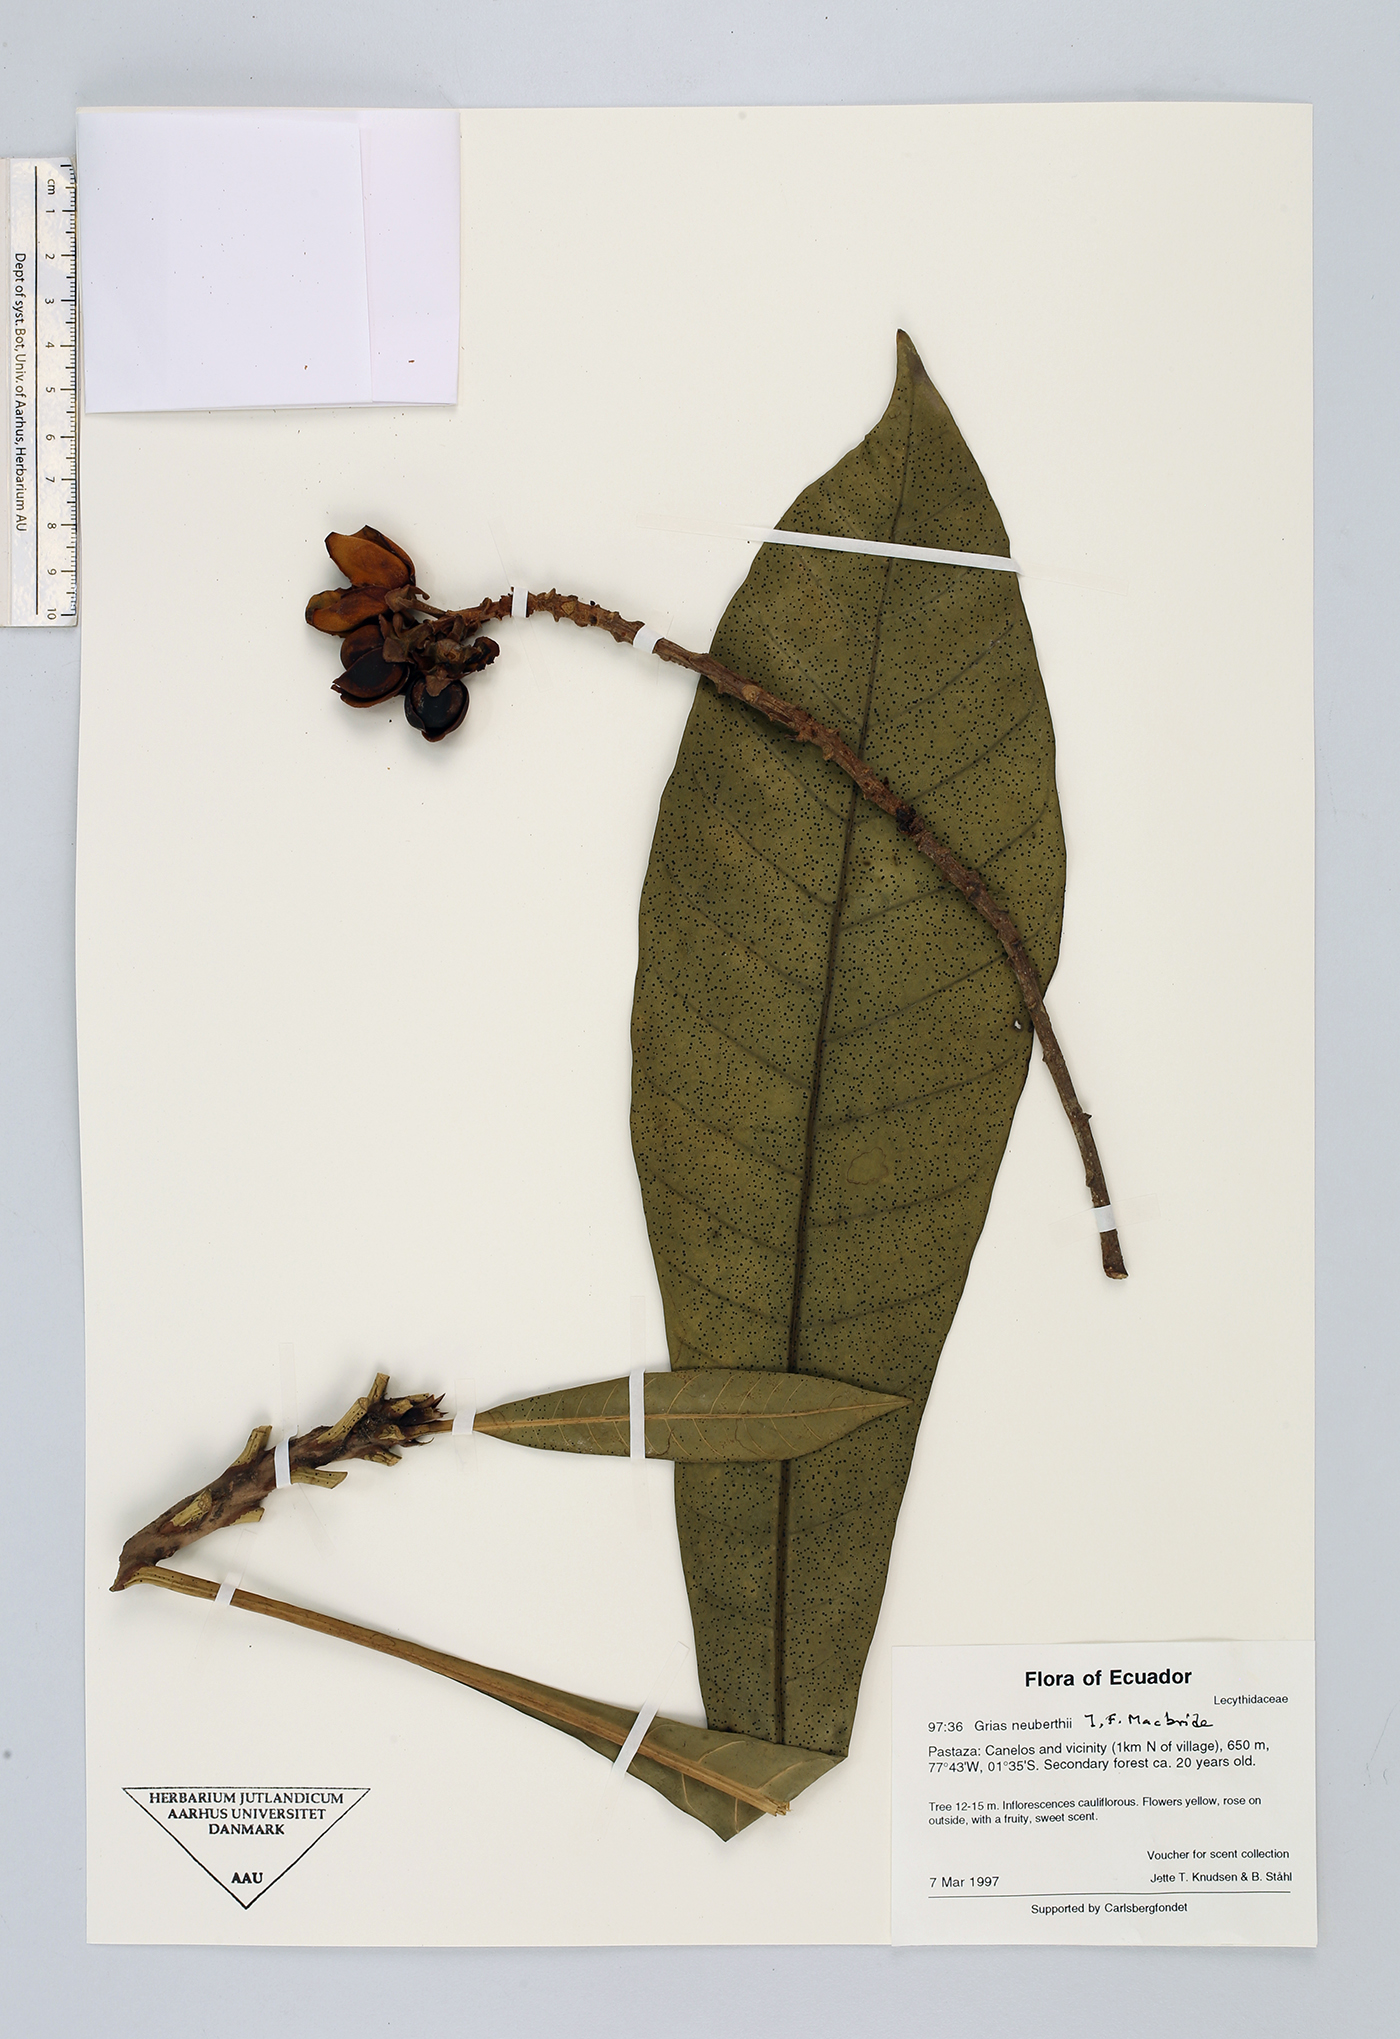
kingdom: Plantae
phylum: Tracheophyta
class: Magnoliopsida
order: Ericales
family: Lecythidaceae
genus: Grias
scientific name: Grias neuberthii
